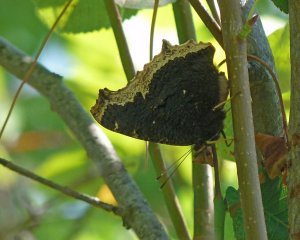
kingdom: Animalia
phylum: Arthropoda
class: Insecta
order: Lepidoptera
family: Nymphalidae
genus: Nymphalis
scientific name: Nymphalis antiopa
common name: Mourning Cloak
